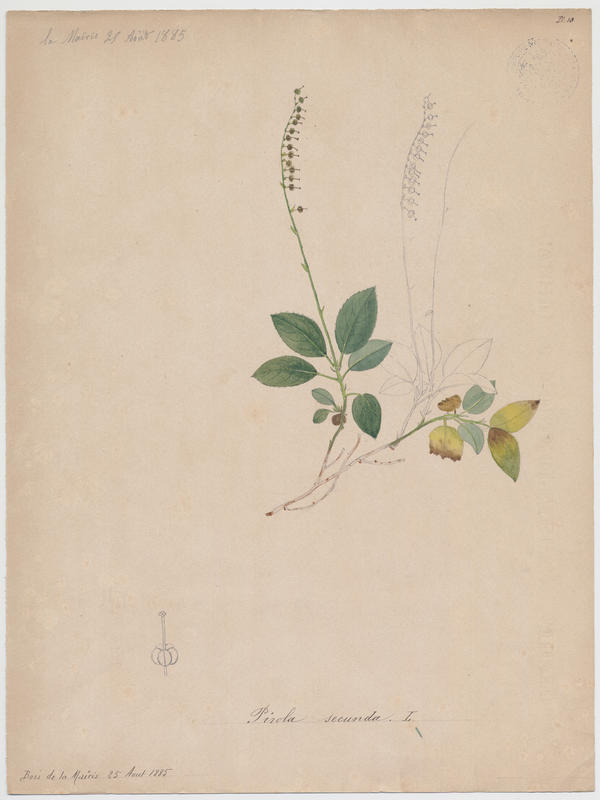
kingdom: Plantae
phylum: Tracheophyta
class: Magnoliopsida
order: Ericales
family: Ericaceae
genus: Orthilia
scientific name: Orthilia secunda
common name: One-sided orthilia
